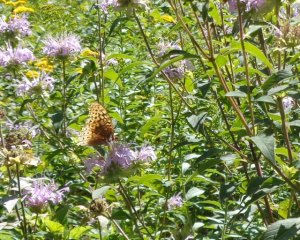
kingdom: Animalia
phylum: Arthropoda
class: Insecta
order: Lepidoptera
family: Nymphalidae
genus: Speyeria
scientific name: Speyeria cybele
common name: Great Spangled Fritillary
